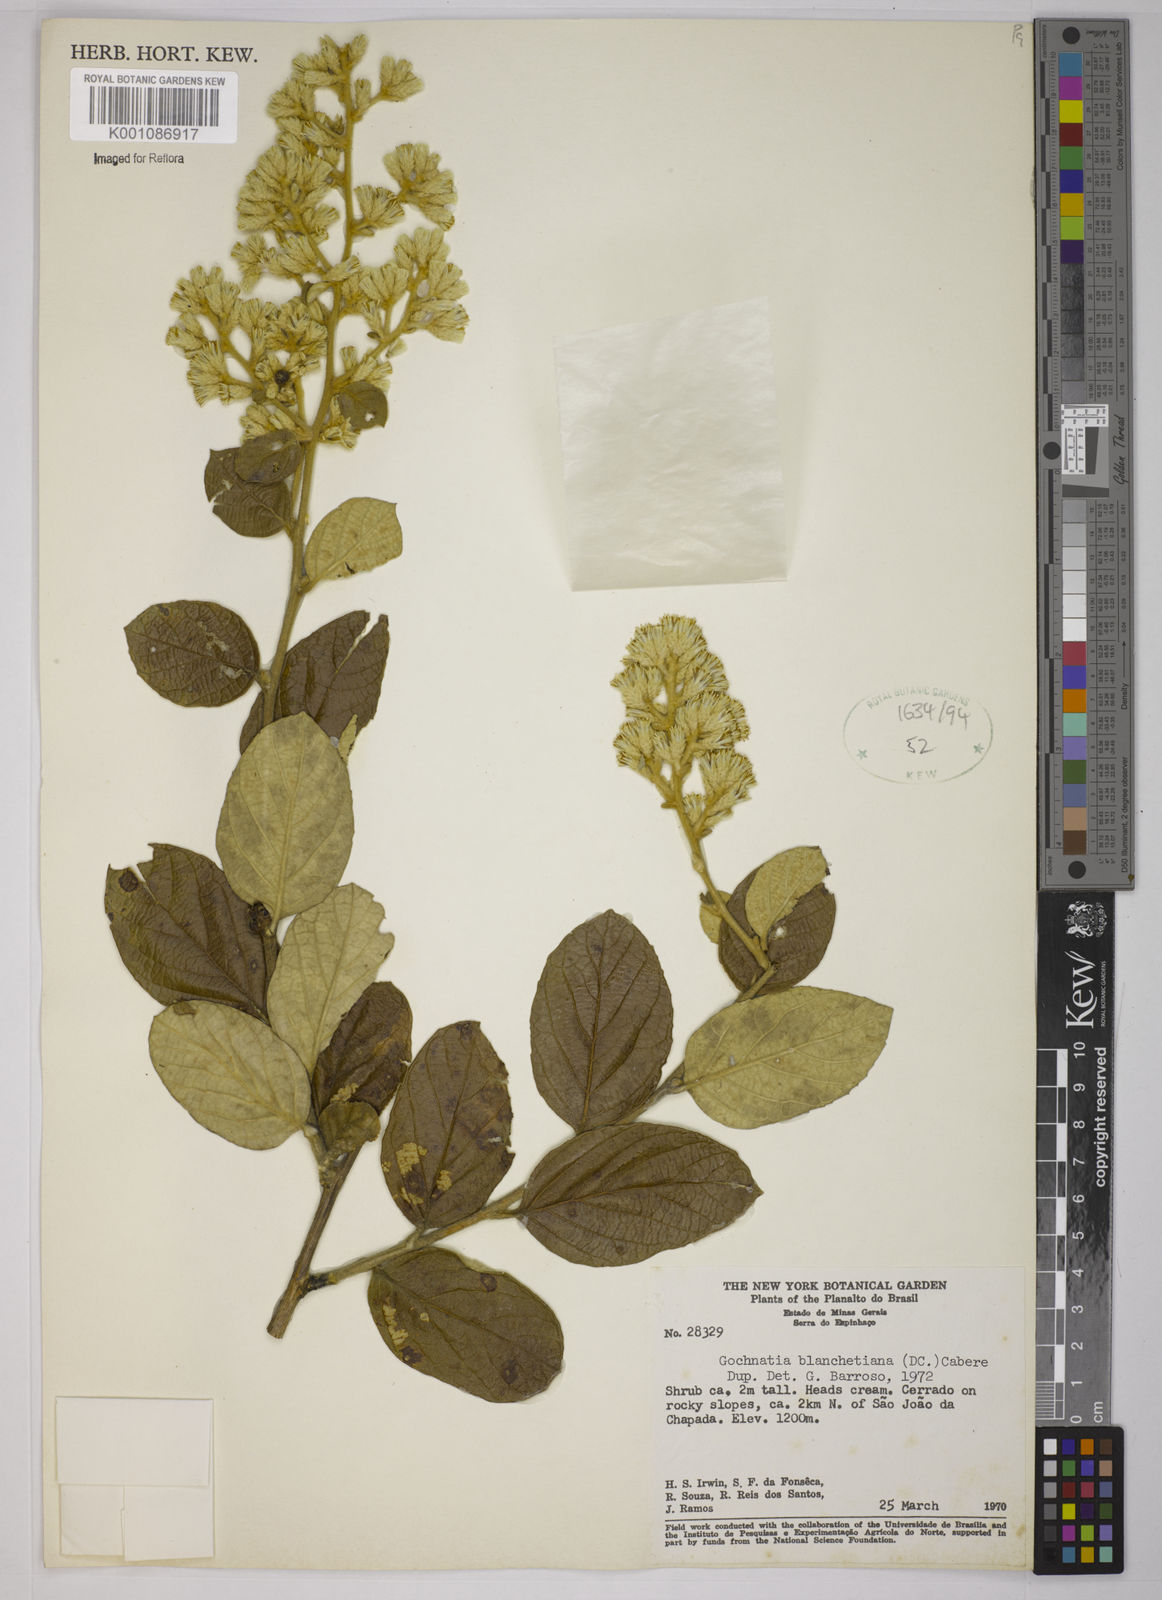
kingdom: Plantae
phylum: Tracheophyta
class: Magnoliopsida
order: Asterales
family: Asteraceae
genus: Moquiniastrum
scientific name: Moquiniastrum blanchetianum
